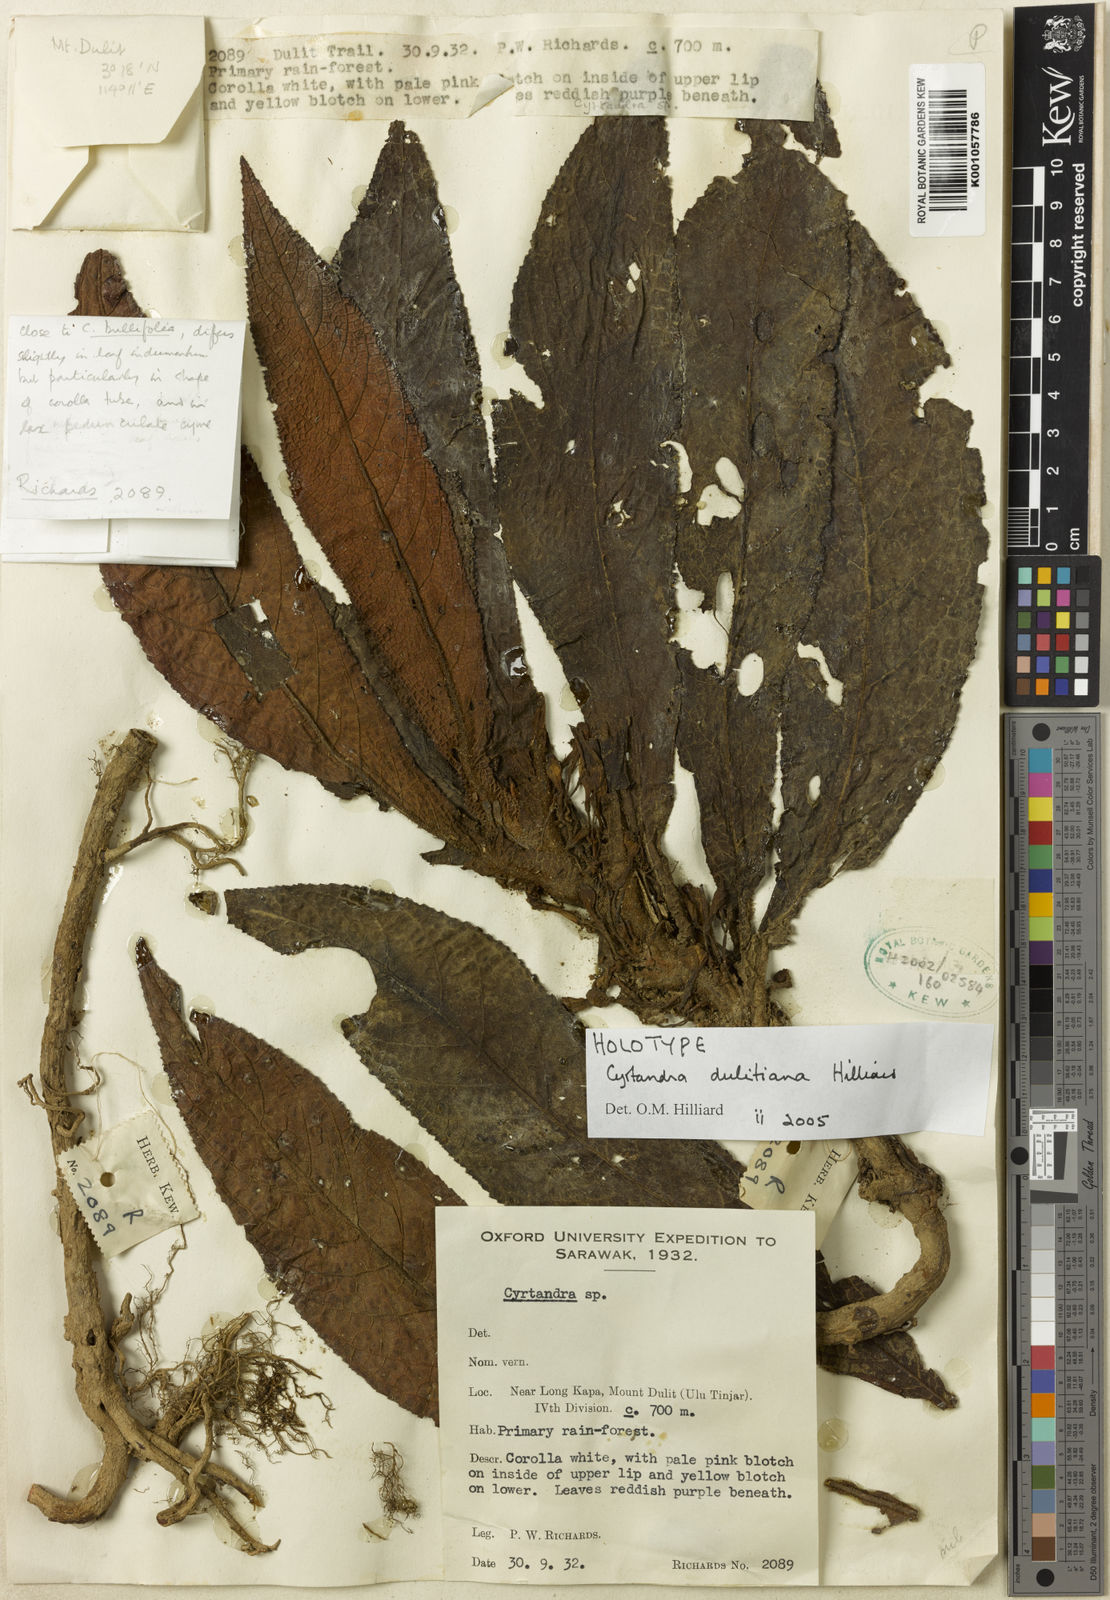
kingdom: Plantae
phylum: Tracheophyta
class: Magnoliopsida
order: Lamiales
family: Gesneriaceae
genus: Cyrtandra
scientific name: Cyrtandra dulitiana
